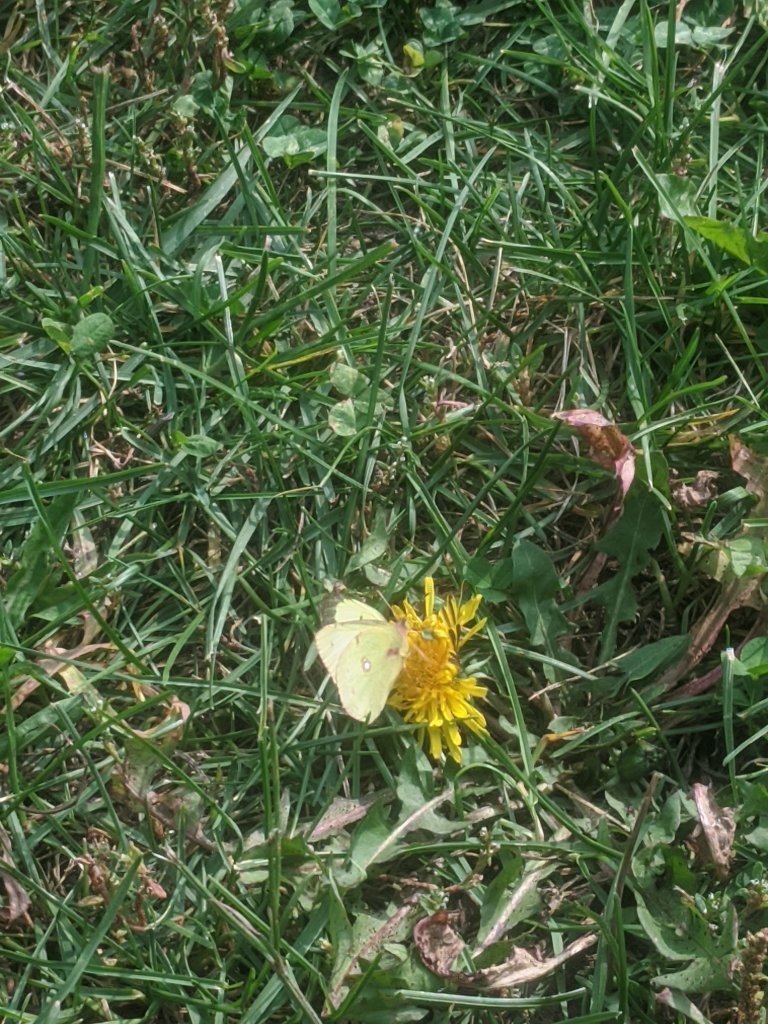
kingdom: Animalia
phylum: Arthropoda
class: Insecta
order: Lepidoptera
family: Pieridae
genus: Colias
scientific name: Colias philodice
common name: Clouded Sulphur
